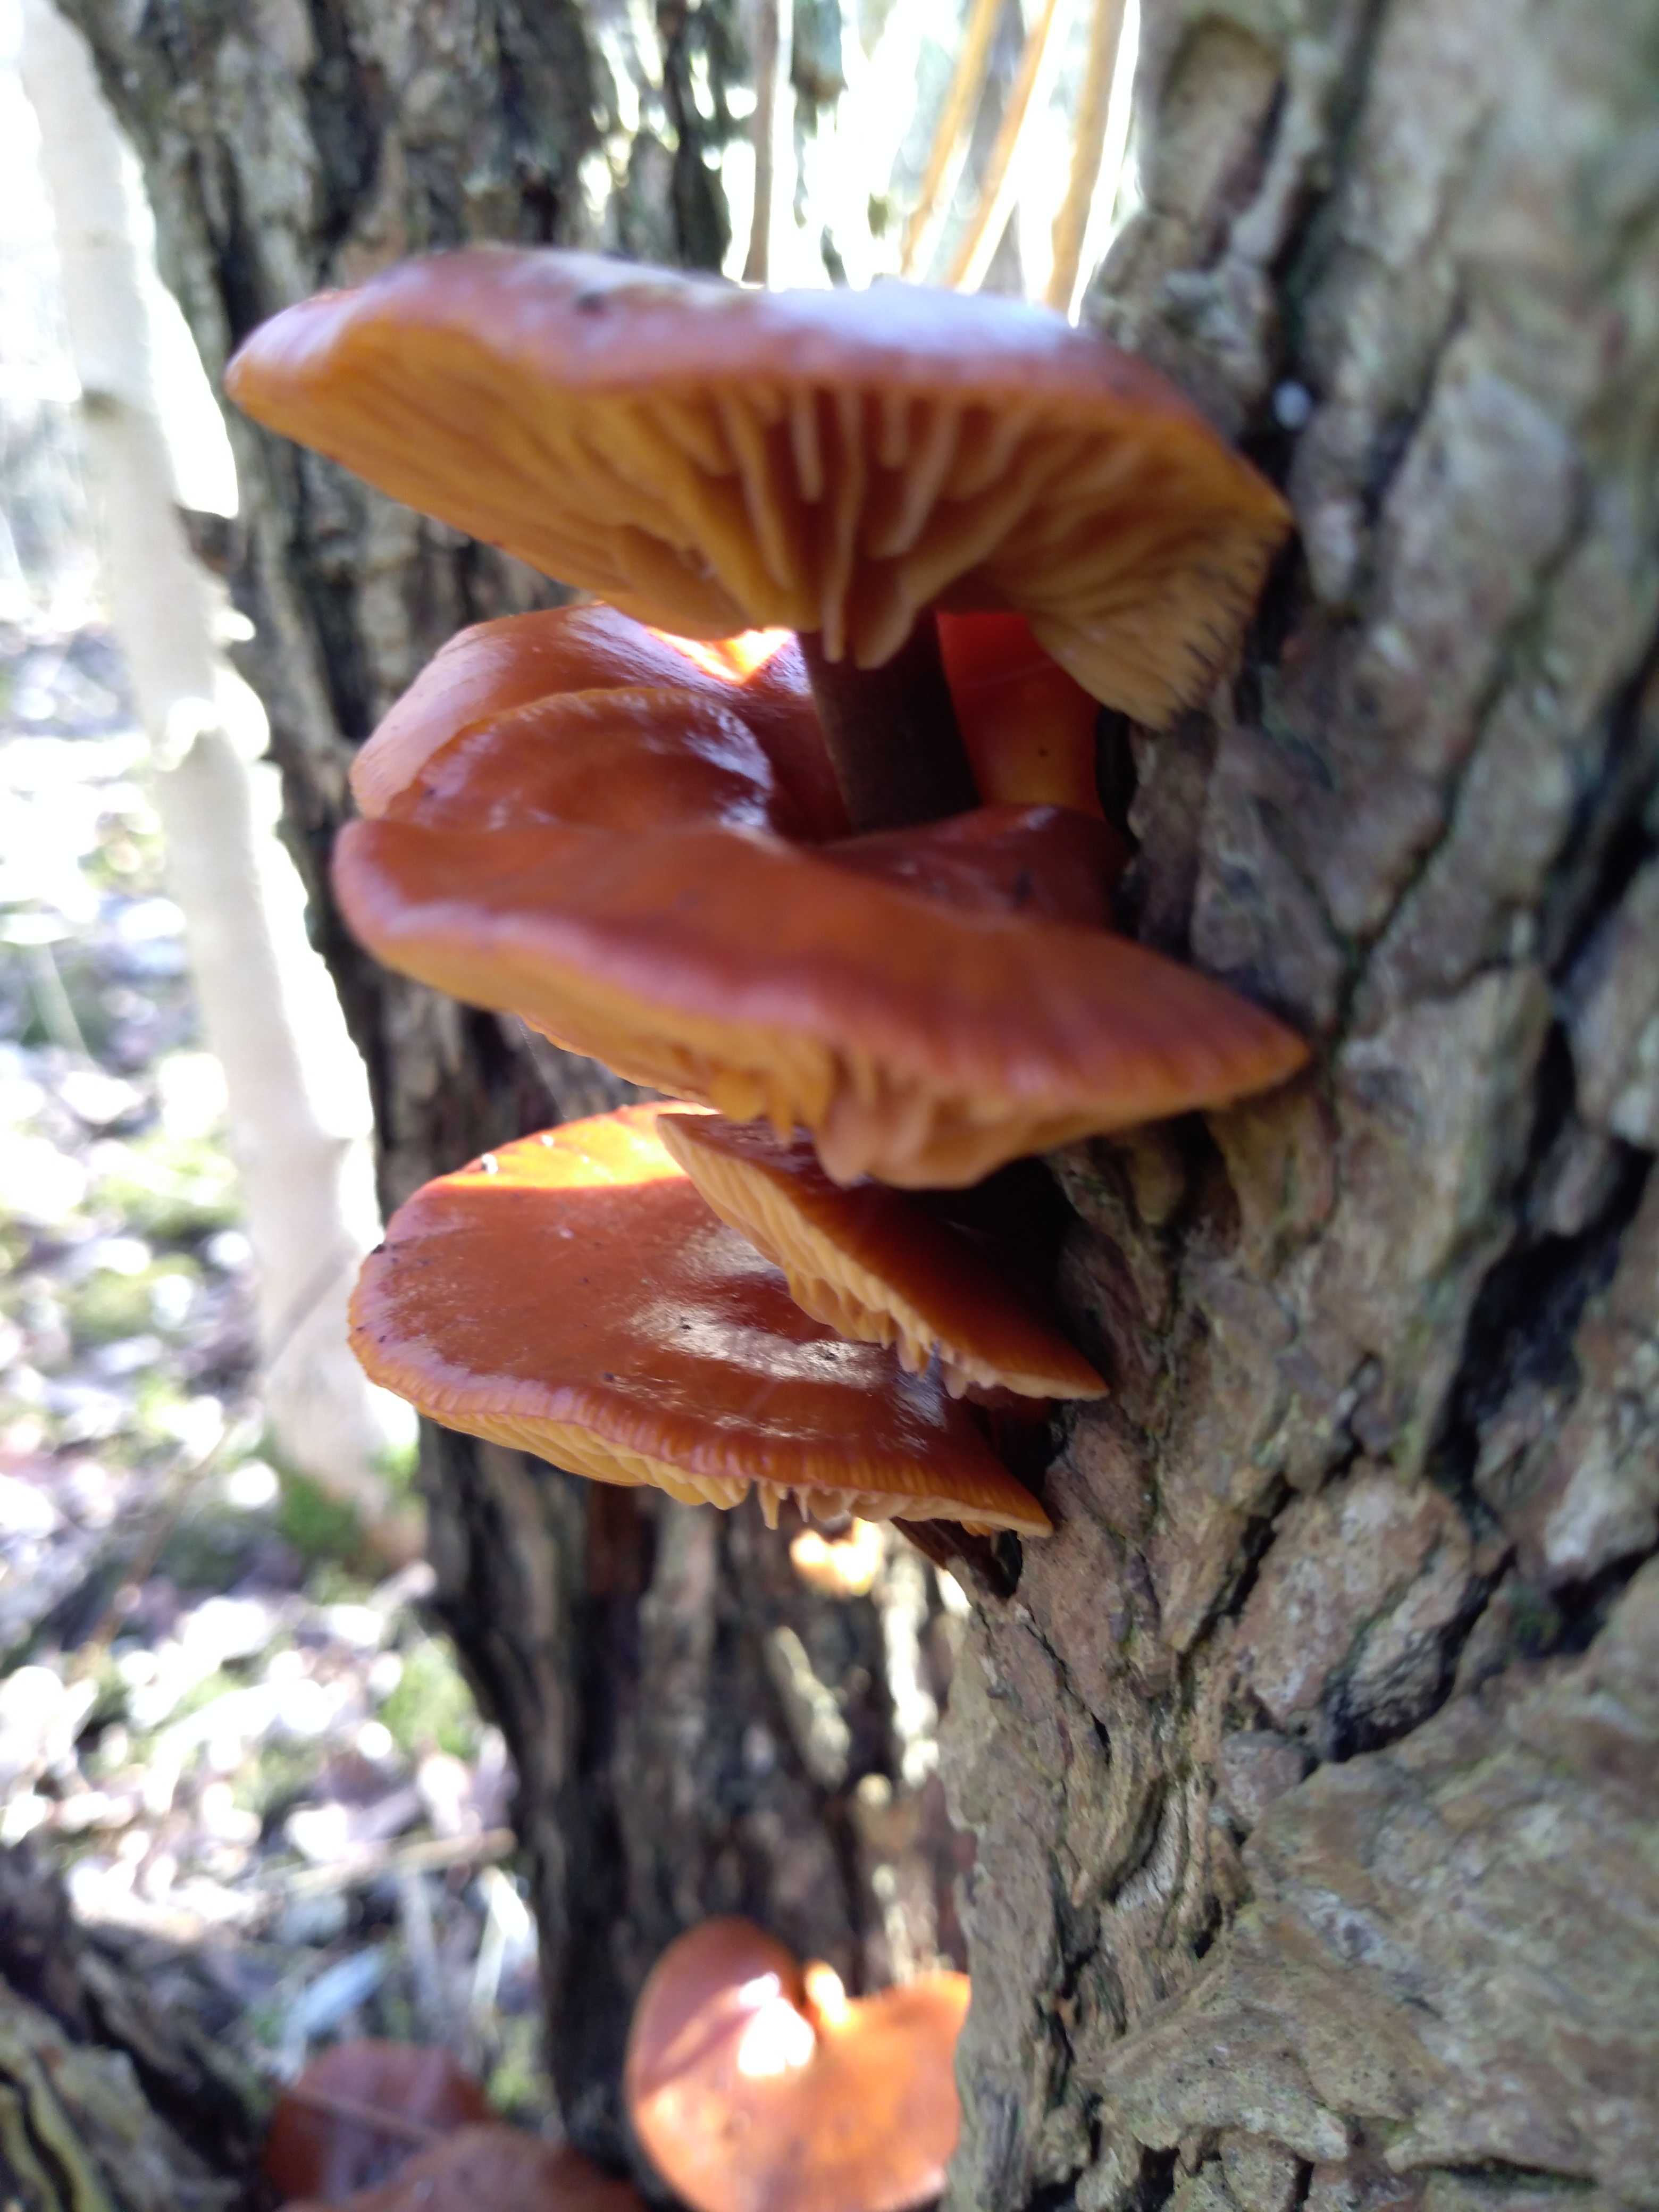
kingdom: Fungi
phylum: Basidiomycota
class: Agaricomycetes
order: Agaricales
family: Physalacriaceae
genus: Flammulina
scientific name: Flammulina
